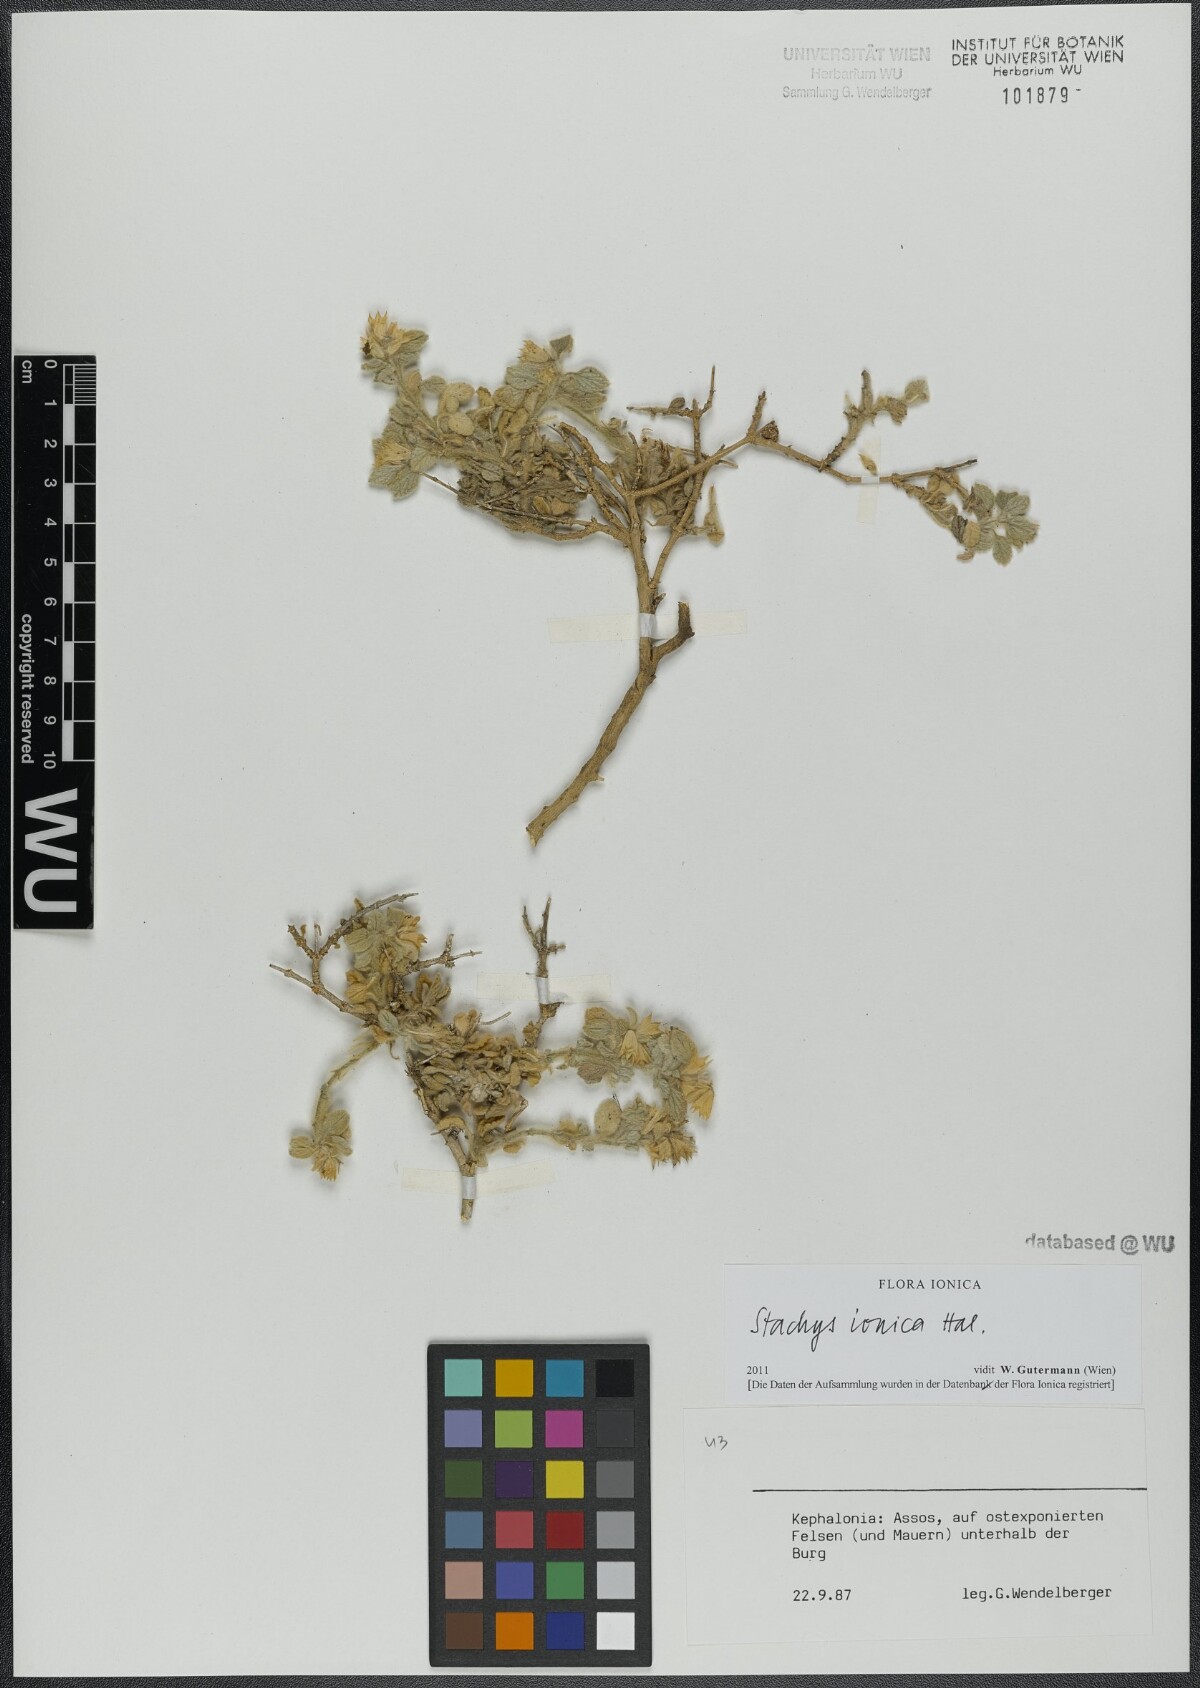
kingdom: Plantae
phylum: Tracheophyta
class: Magnoliopsida
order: Lamiales
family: Lamiaceae
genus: Stachys
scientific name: Stachys ionica
